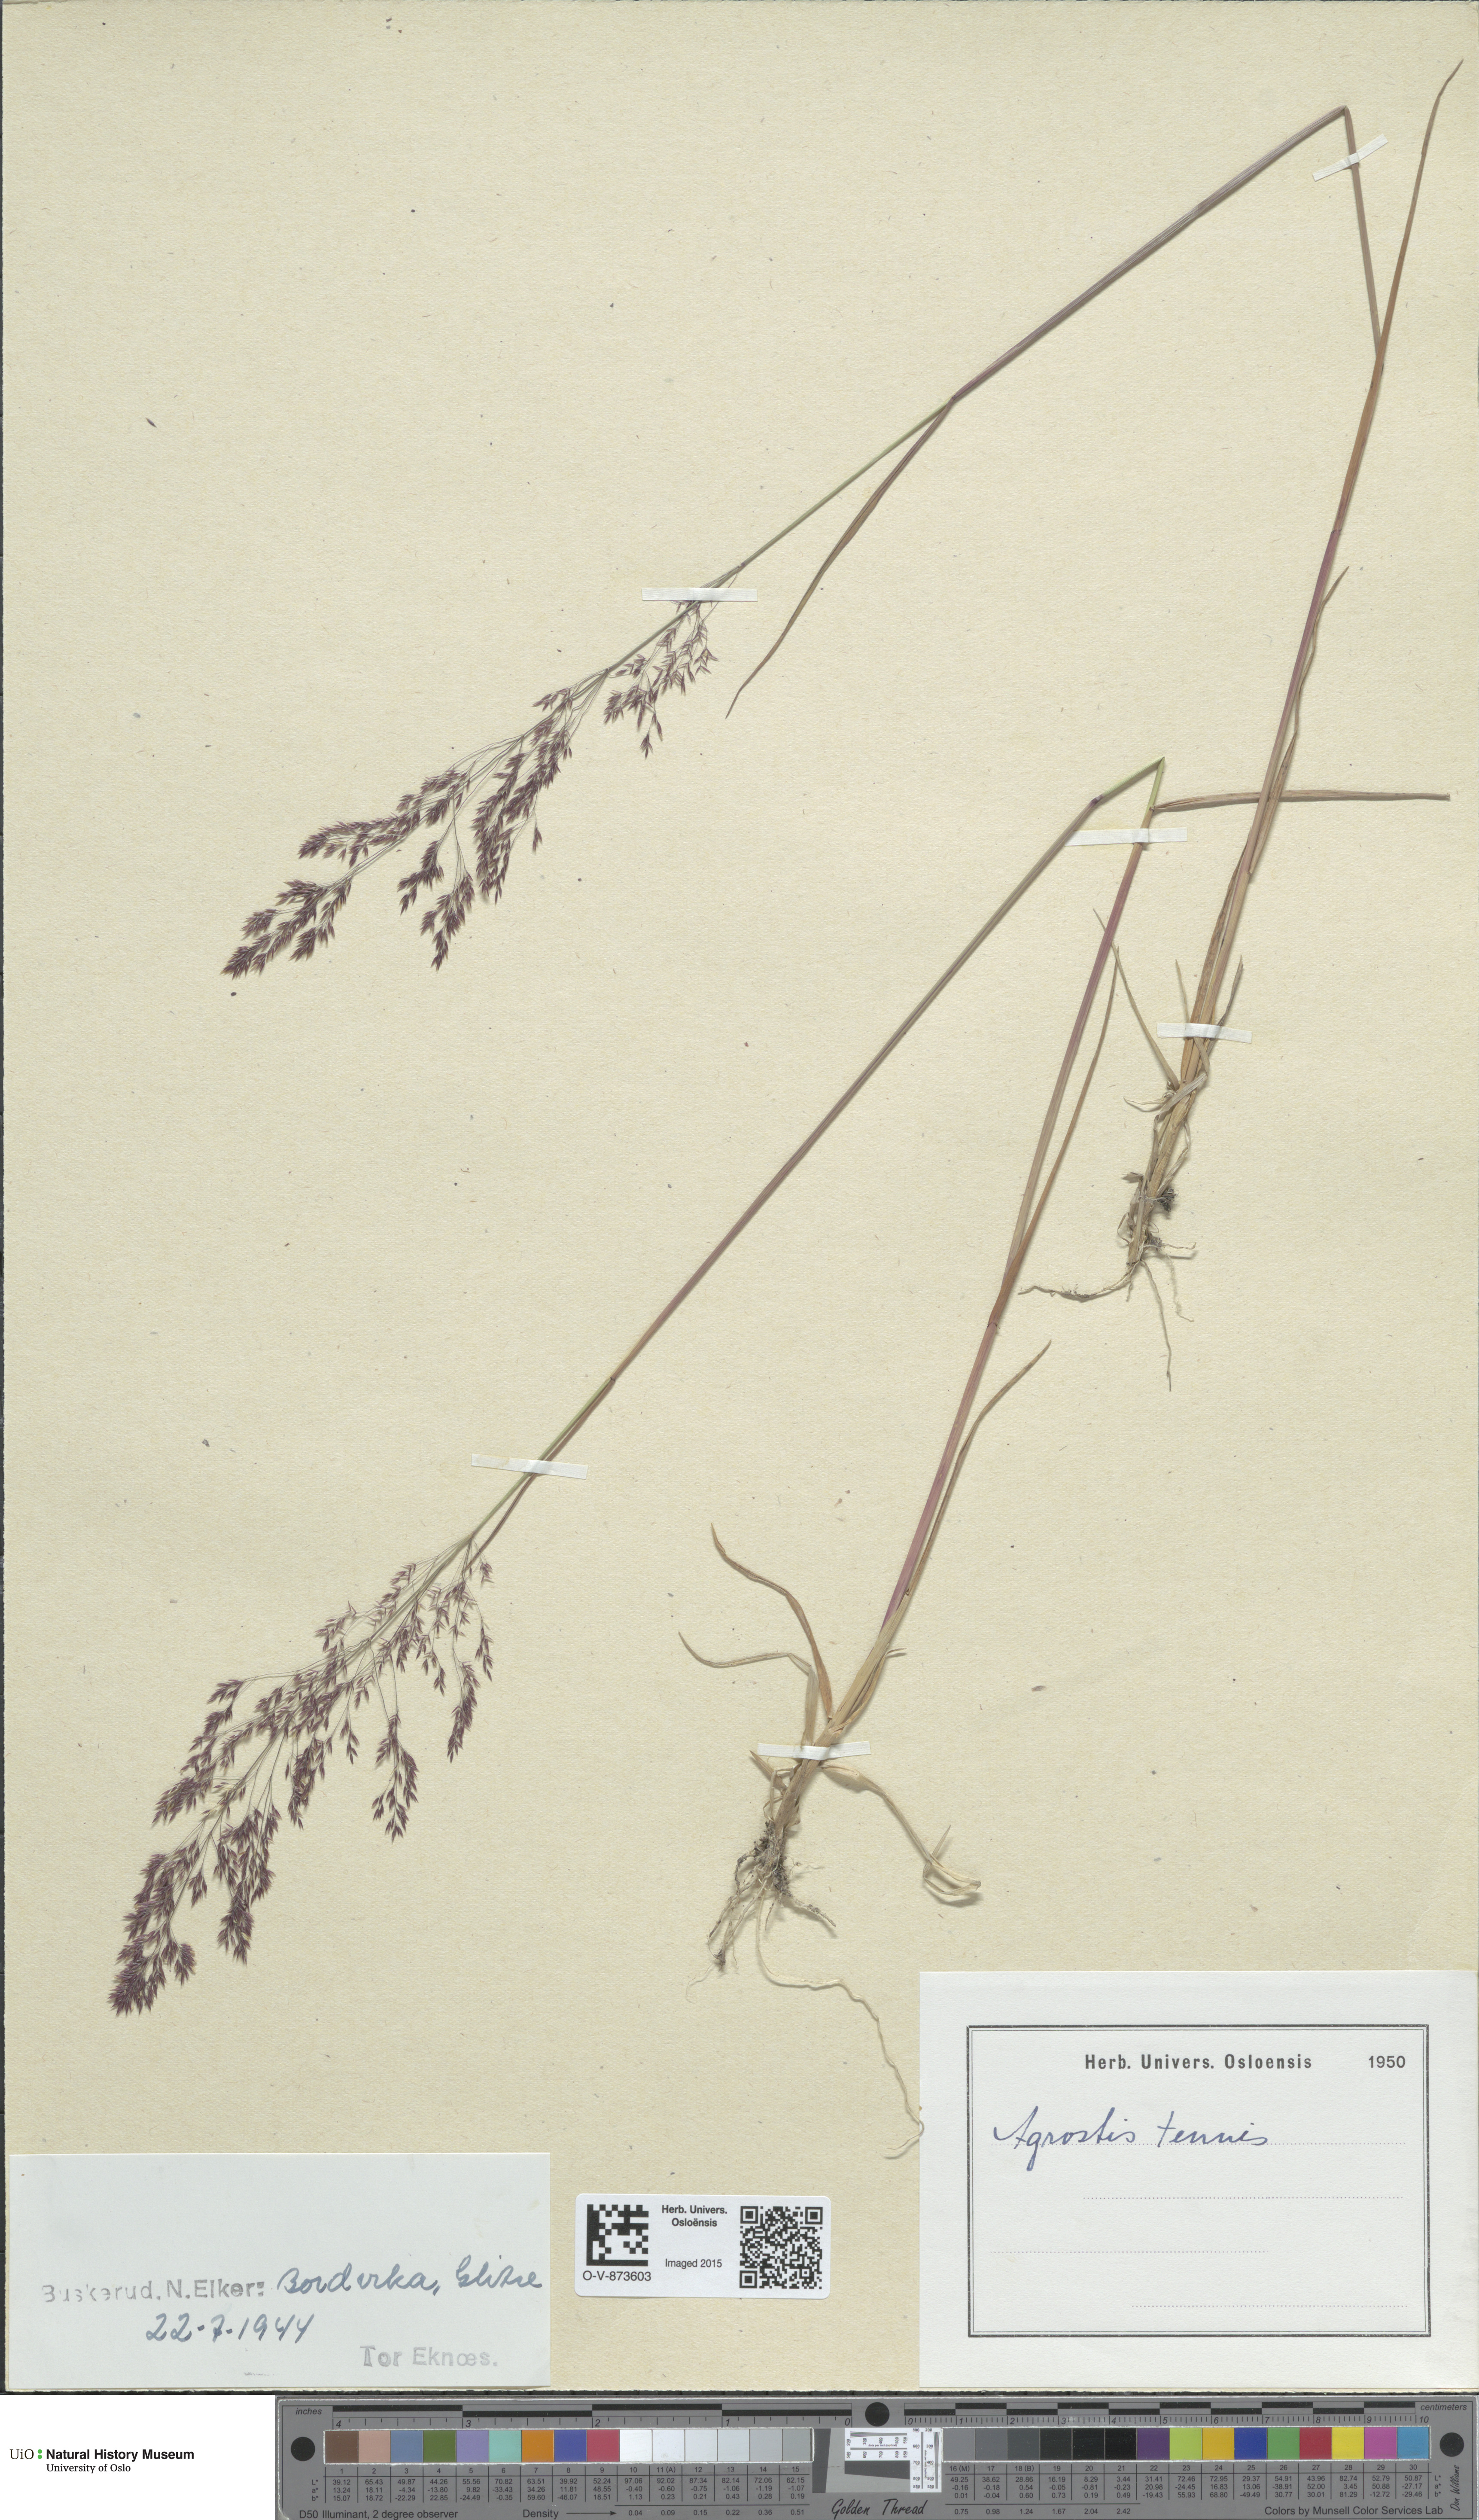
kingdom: Plantae
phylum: Tracheophyta
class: Liliopsida
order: Poales
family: Poaceae
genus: Agrostis
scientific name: Agrostis capillaris
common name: Colonial bentgrass
